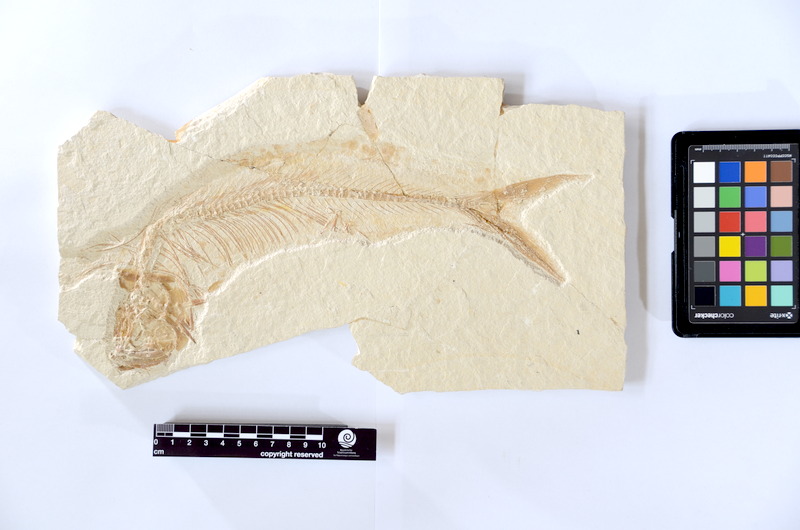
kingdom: Animalia
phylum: Chordata
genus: Thrissops
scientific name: Thrissops formosus
